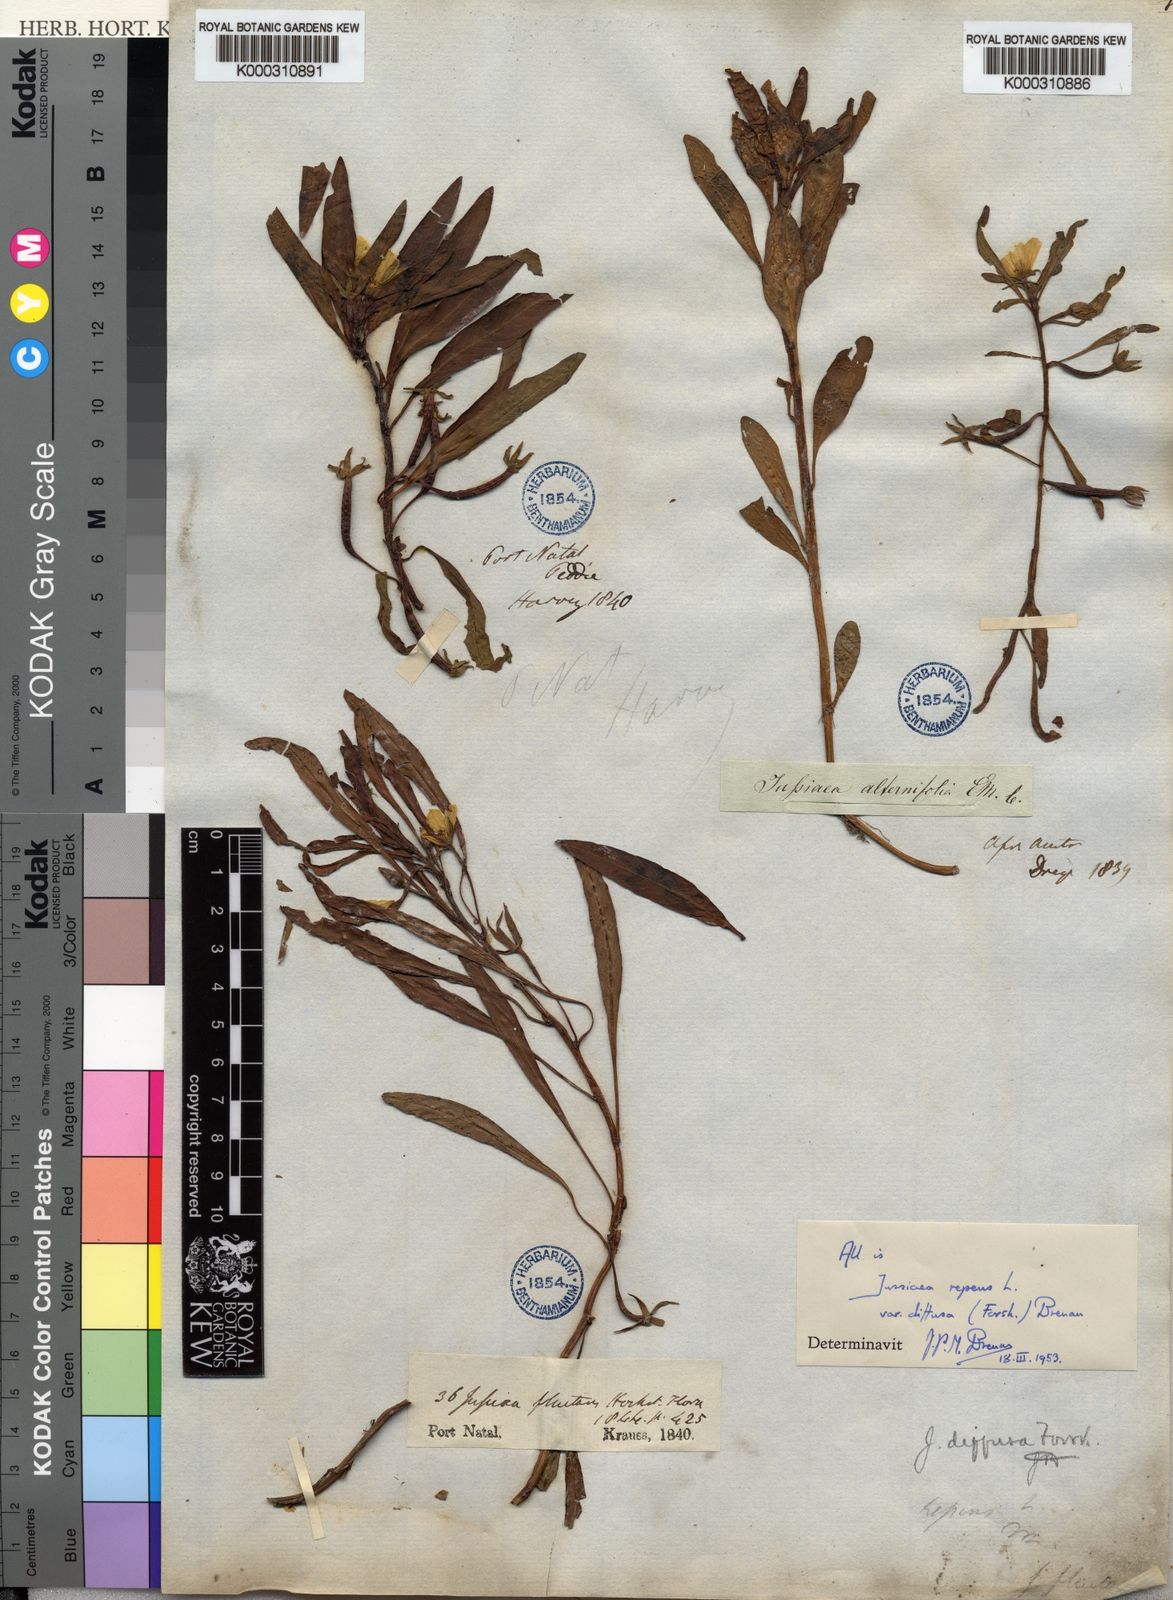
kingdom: Plantae
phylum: Tracheophyta
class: Magnoliopsida
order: Myrtales
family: Onagraceae
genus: Ludwigia
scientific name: Ludwigia adscendens
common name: Creeping water primrose
